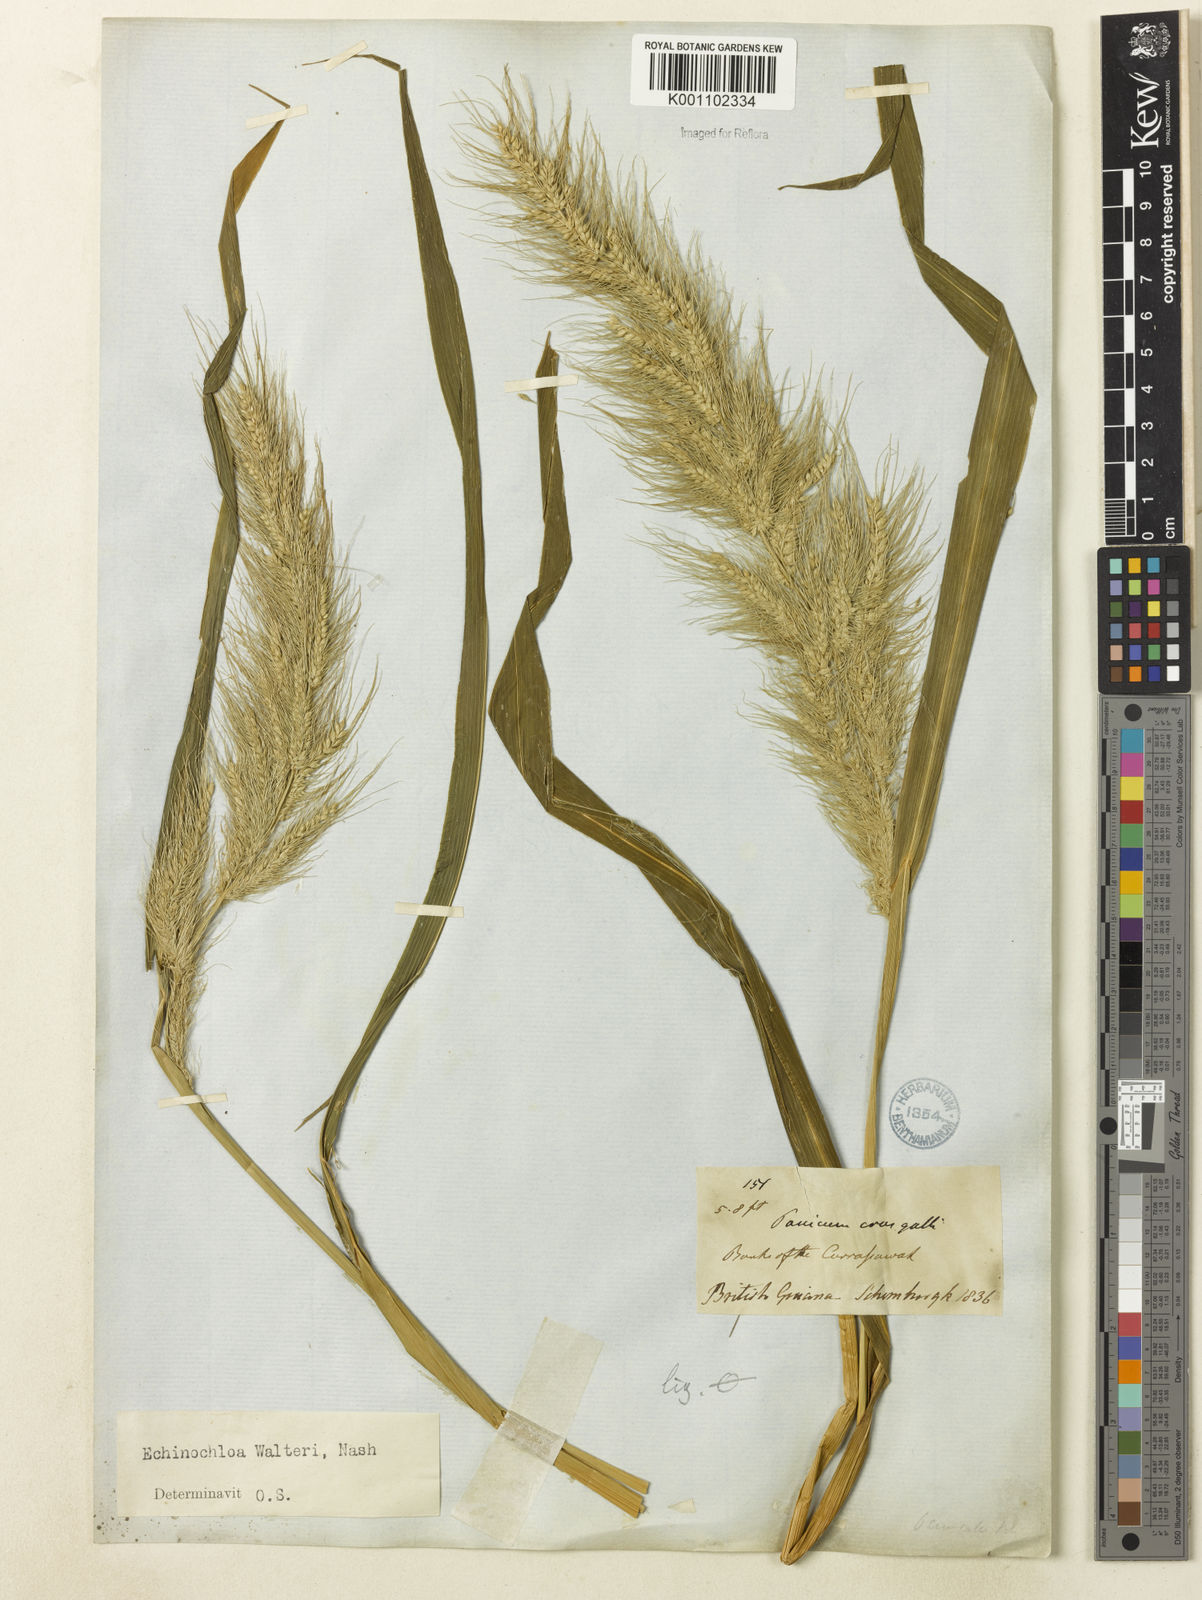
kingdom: Plantae
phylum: Tracheophyta
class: Liliopsida
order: Poales
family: Poaceae
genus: Echinochloa
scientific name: Echinochloa walteri
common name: Coast barnyard grass
